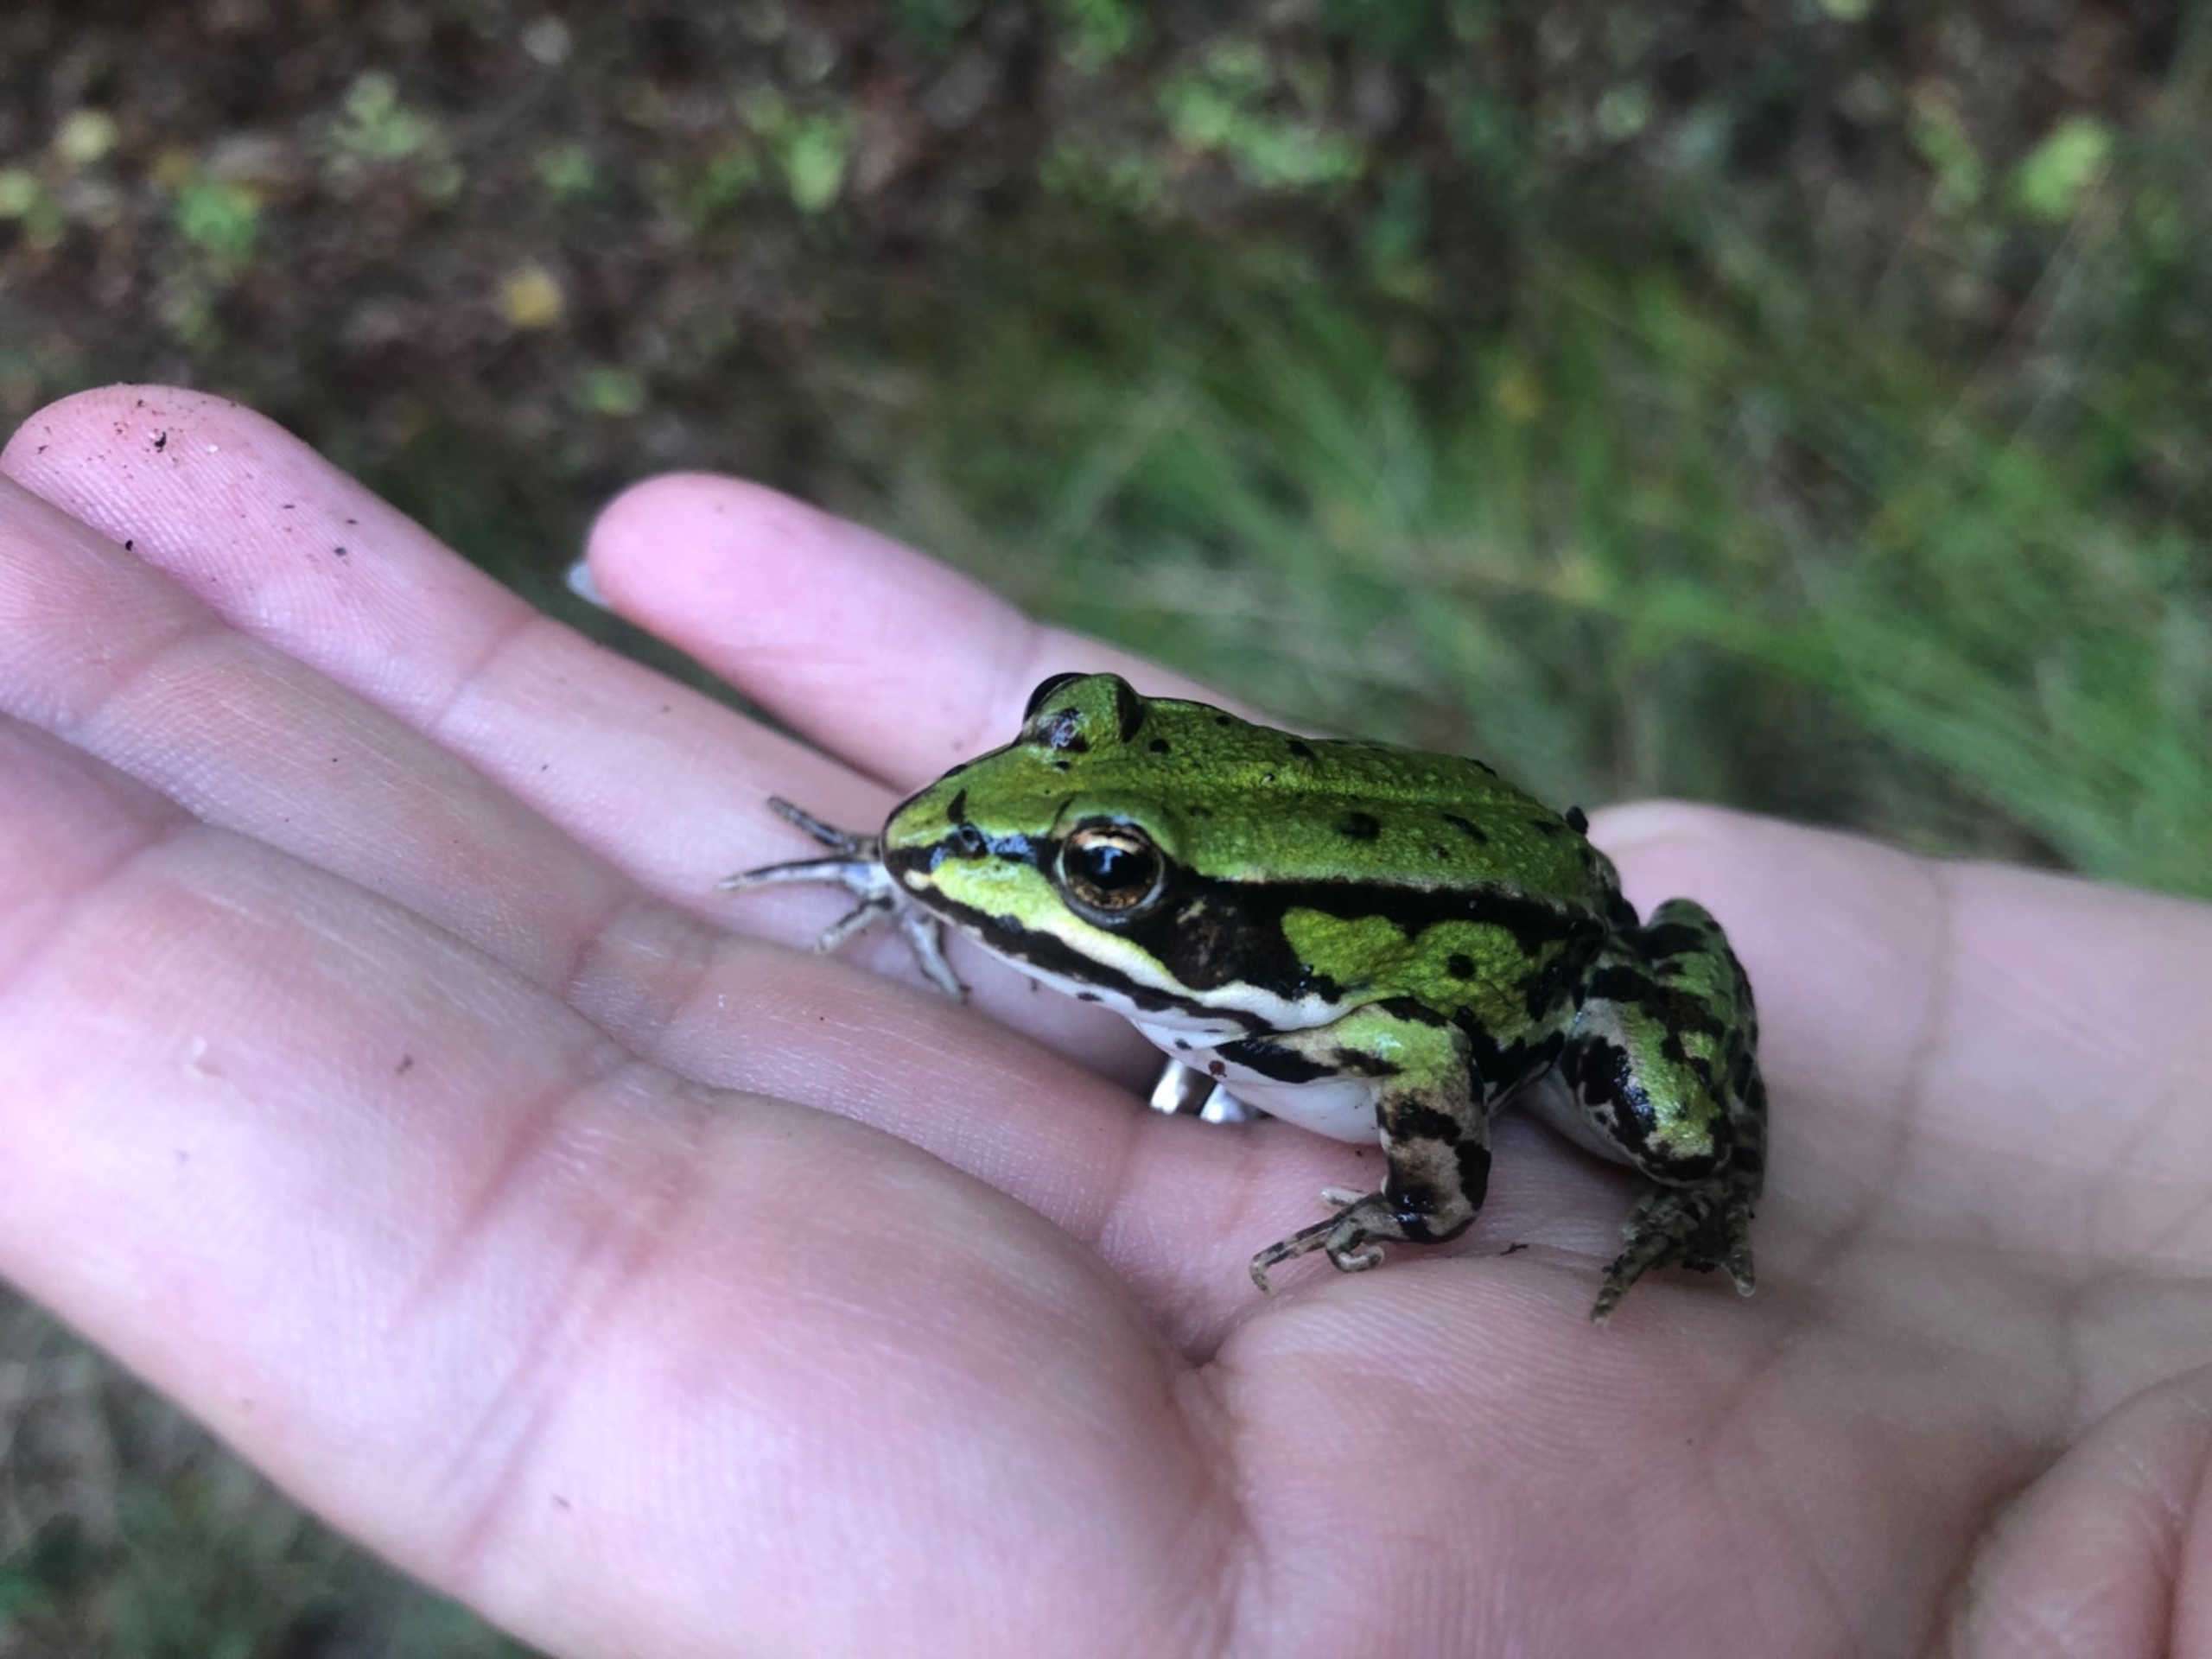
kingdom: Animalia
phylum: Chordata
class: Amphibia
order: Anura
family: Ranidae
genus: Pelophylax
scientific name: Pelophylax lessonae
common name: Grøn frø
